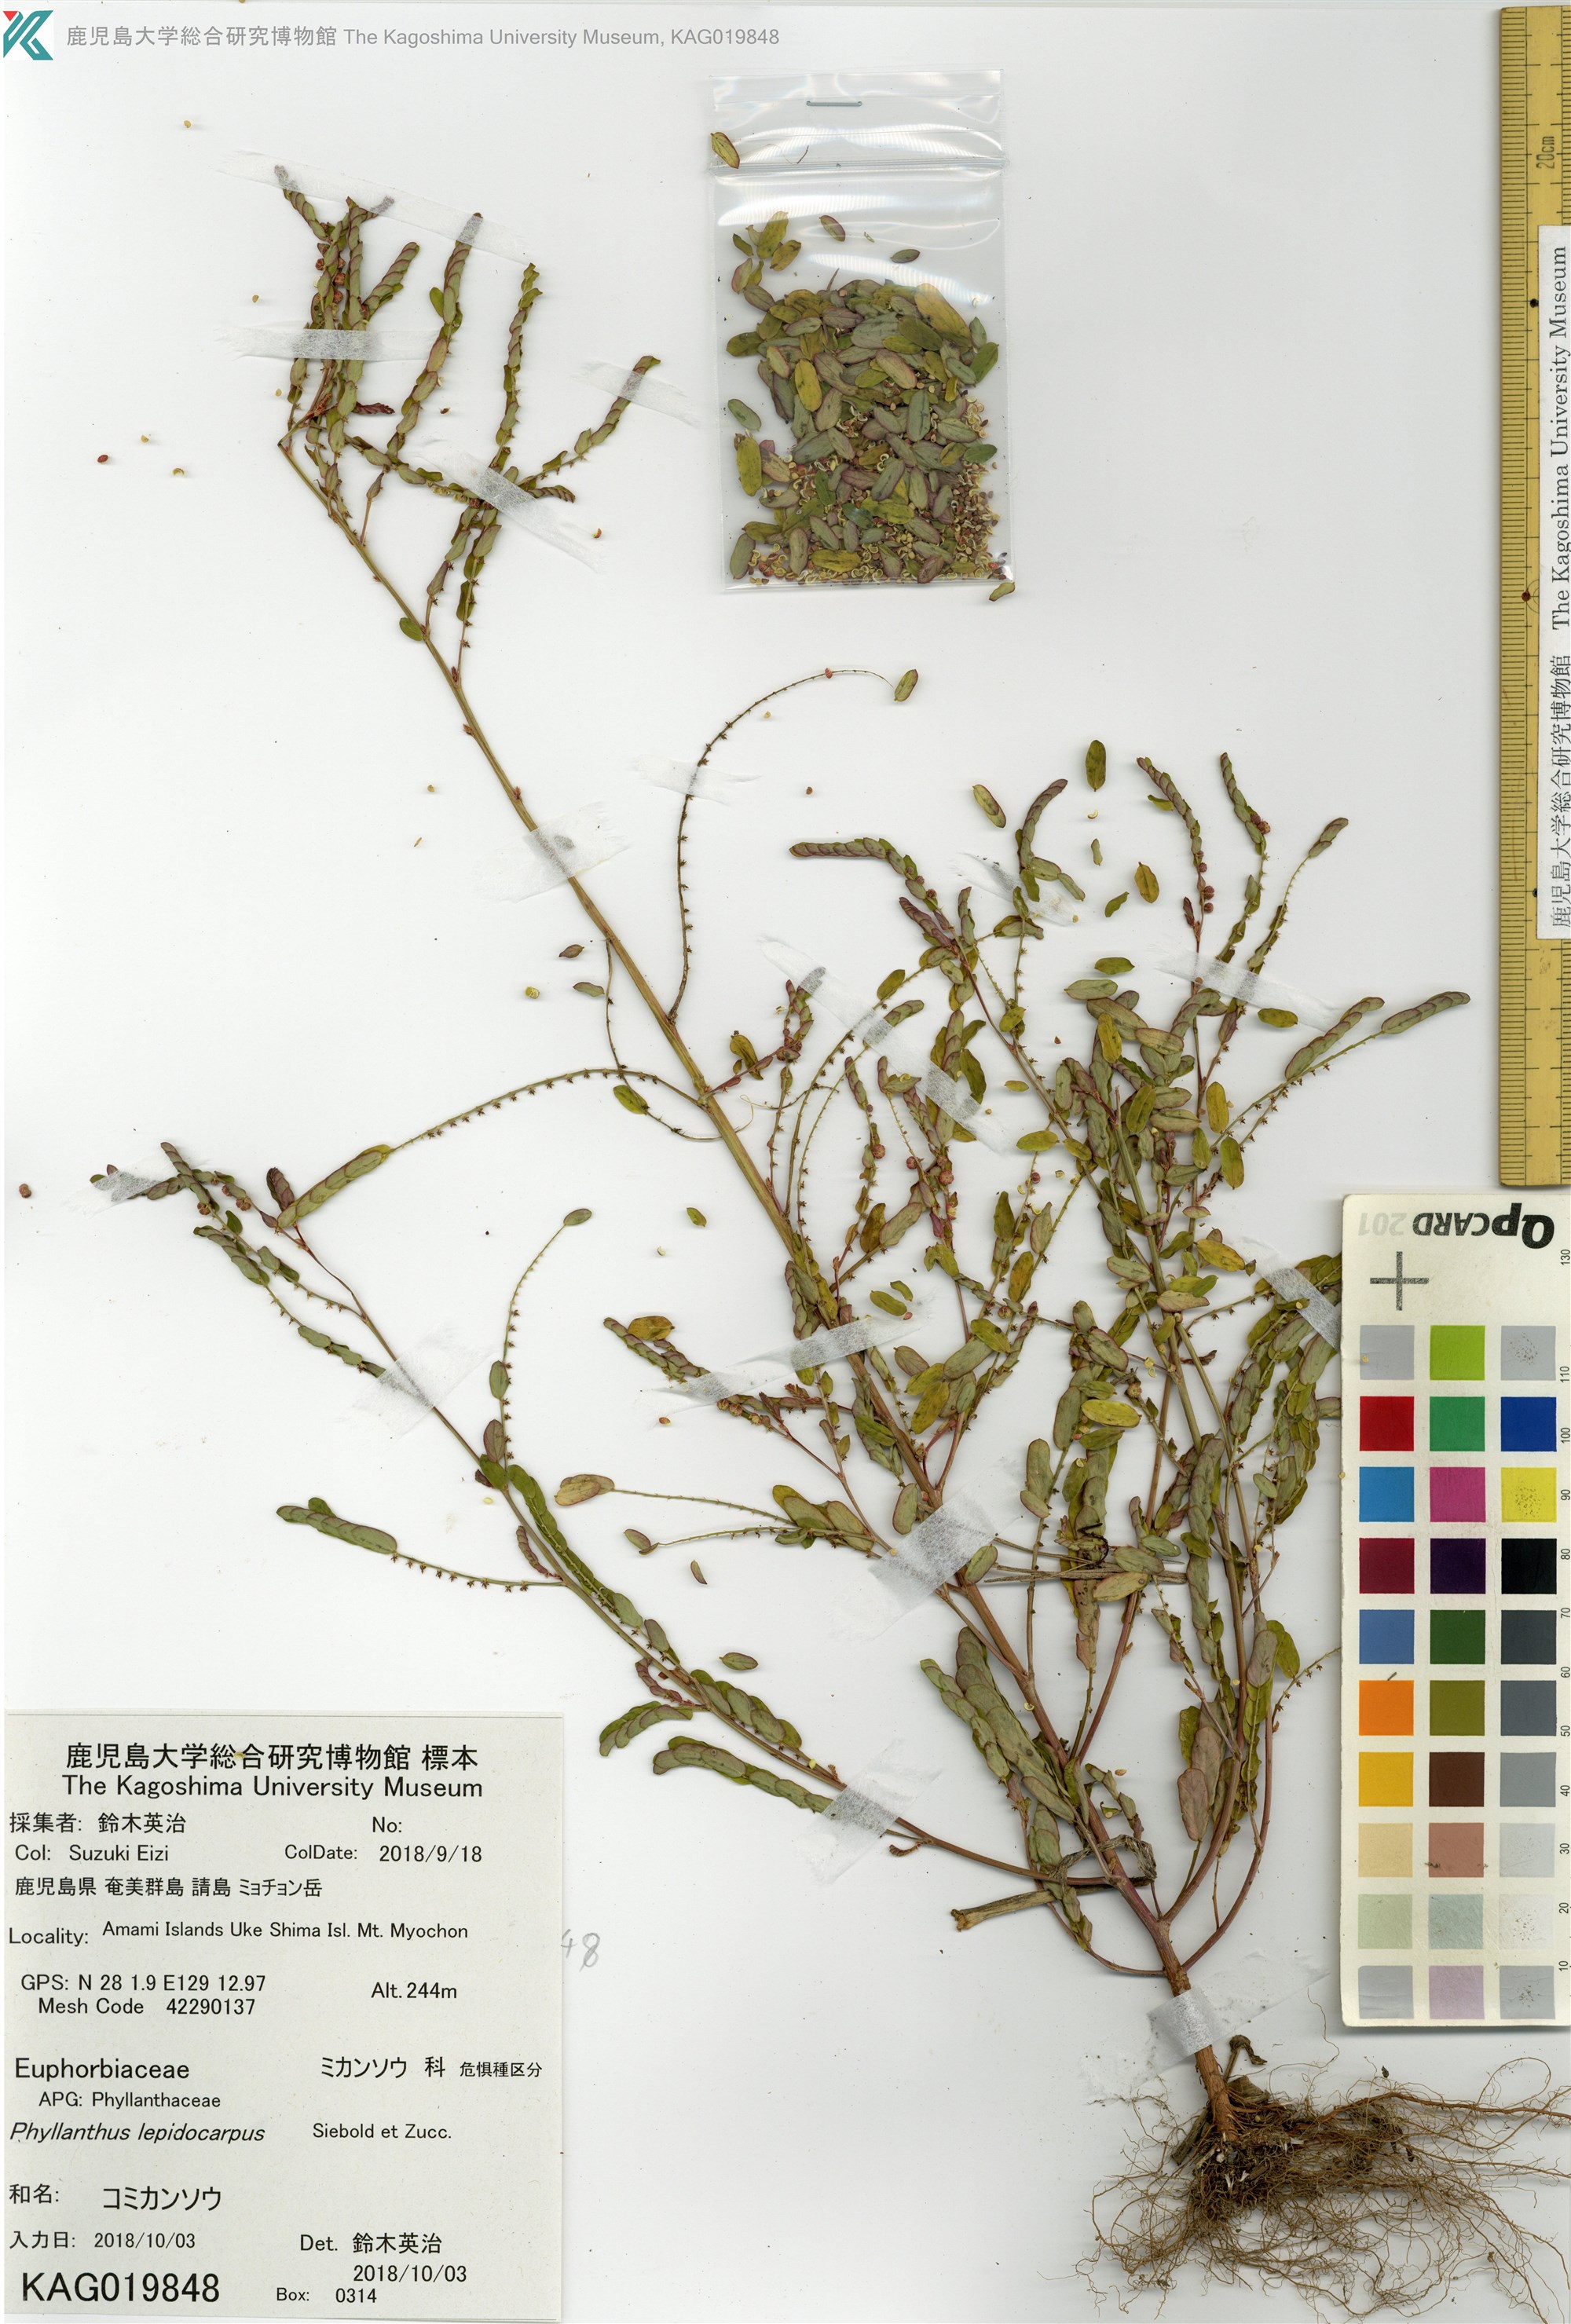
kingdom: Plantae
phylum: Tracheophyta
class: Magnoliopsida
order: Malpighiales
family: Phyllanthaceae
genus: Phyllanthus
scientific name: Phyllanthus urinaria
